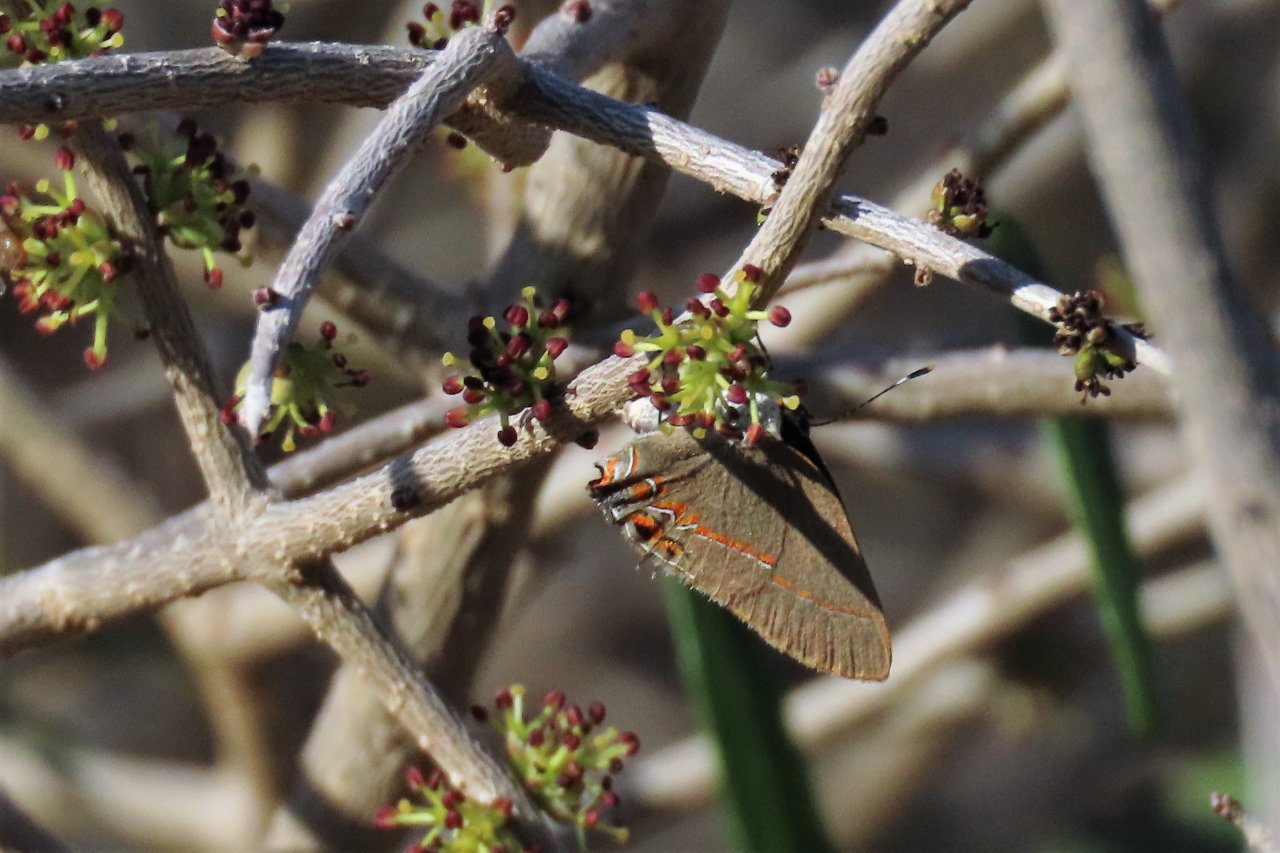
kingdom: Animalia
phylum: Arthropoda
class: Insecta
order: Lepidoptera
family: Lycaenidae
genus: Calycopis
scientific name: Calycopis isobeon
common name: Dusky-blue Groundstreak
